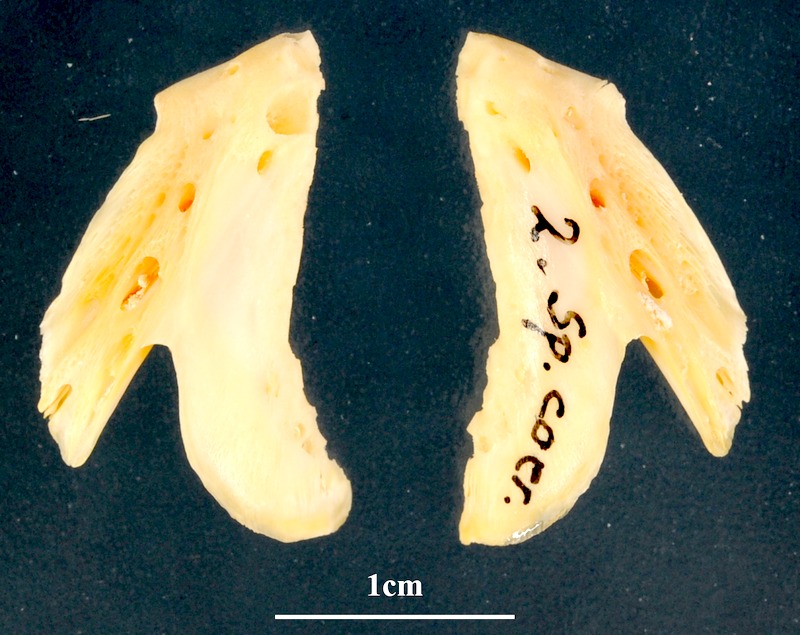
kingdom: Animalia
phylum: Chordata
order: Perciformes
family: Sparidae
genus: Pagrus
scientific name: Pagrus caeruleostictus
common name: Bluespotted seabream
